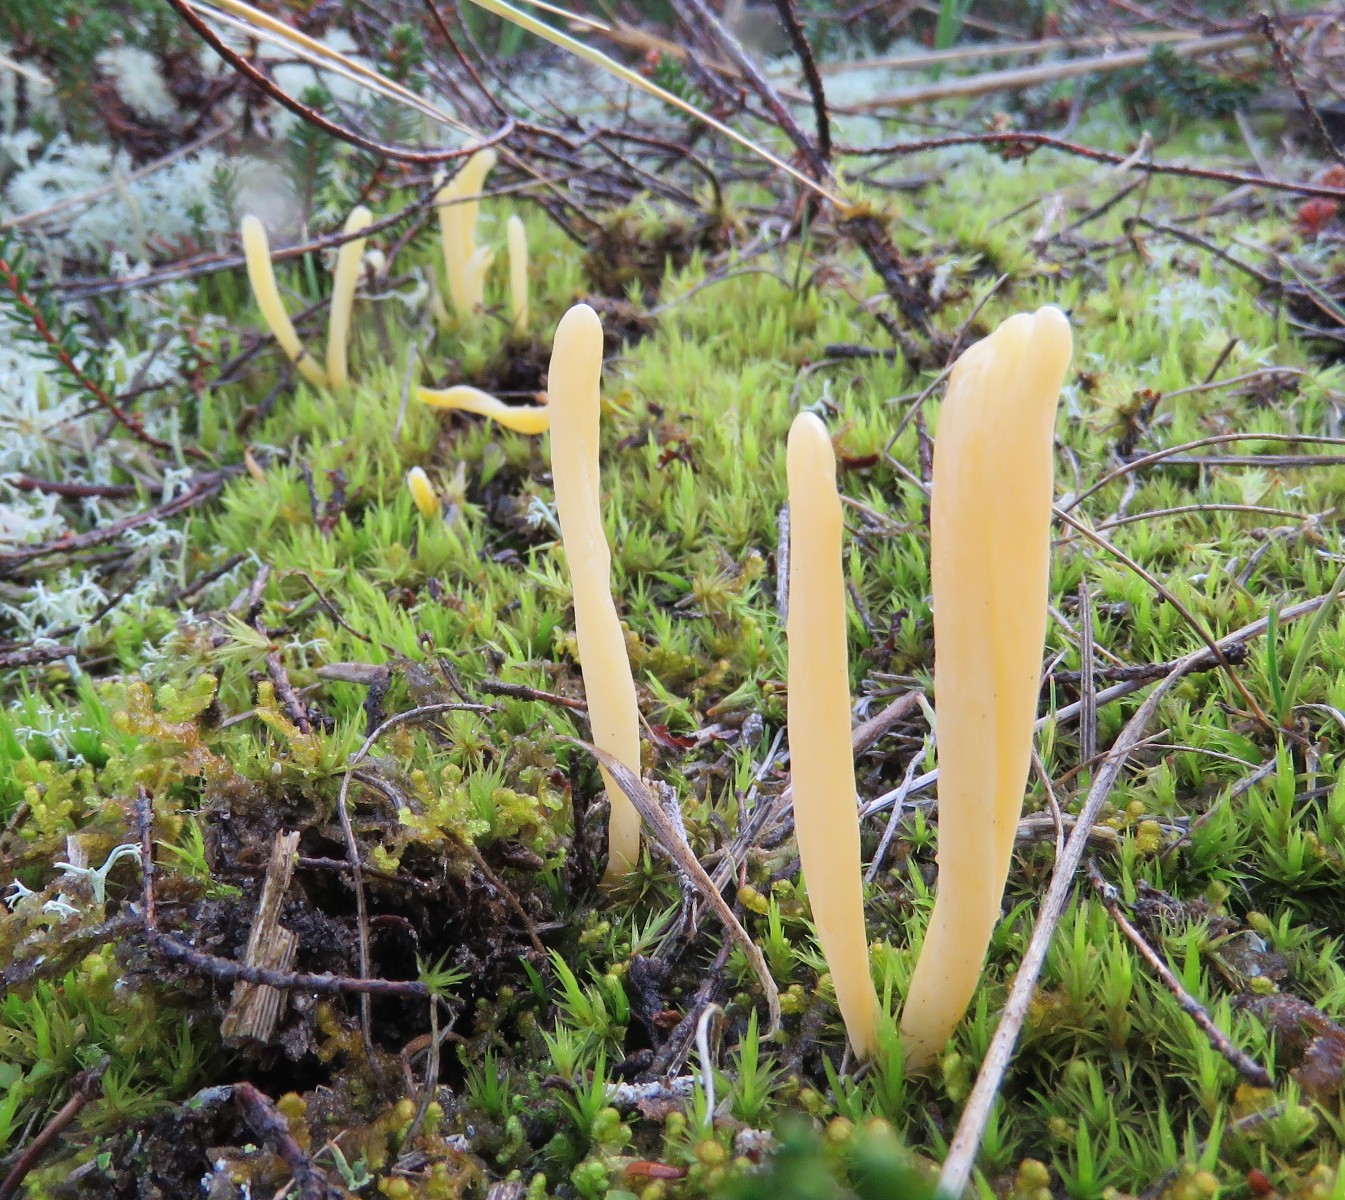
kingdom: Fungi
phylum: Basidiomycota
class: Agaricomycetes
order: Agaricales
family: Clavariaceae
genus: Clavaria
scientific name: Clavaria argillacea
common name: lerfarvet køllesvamp
